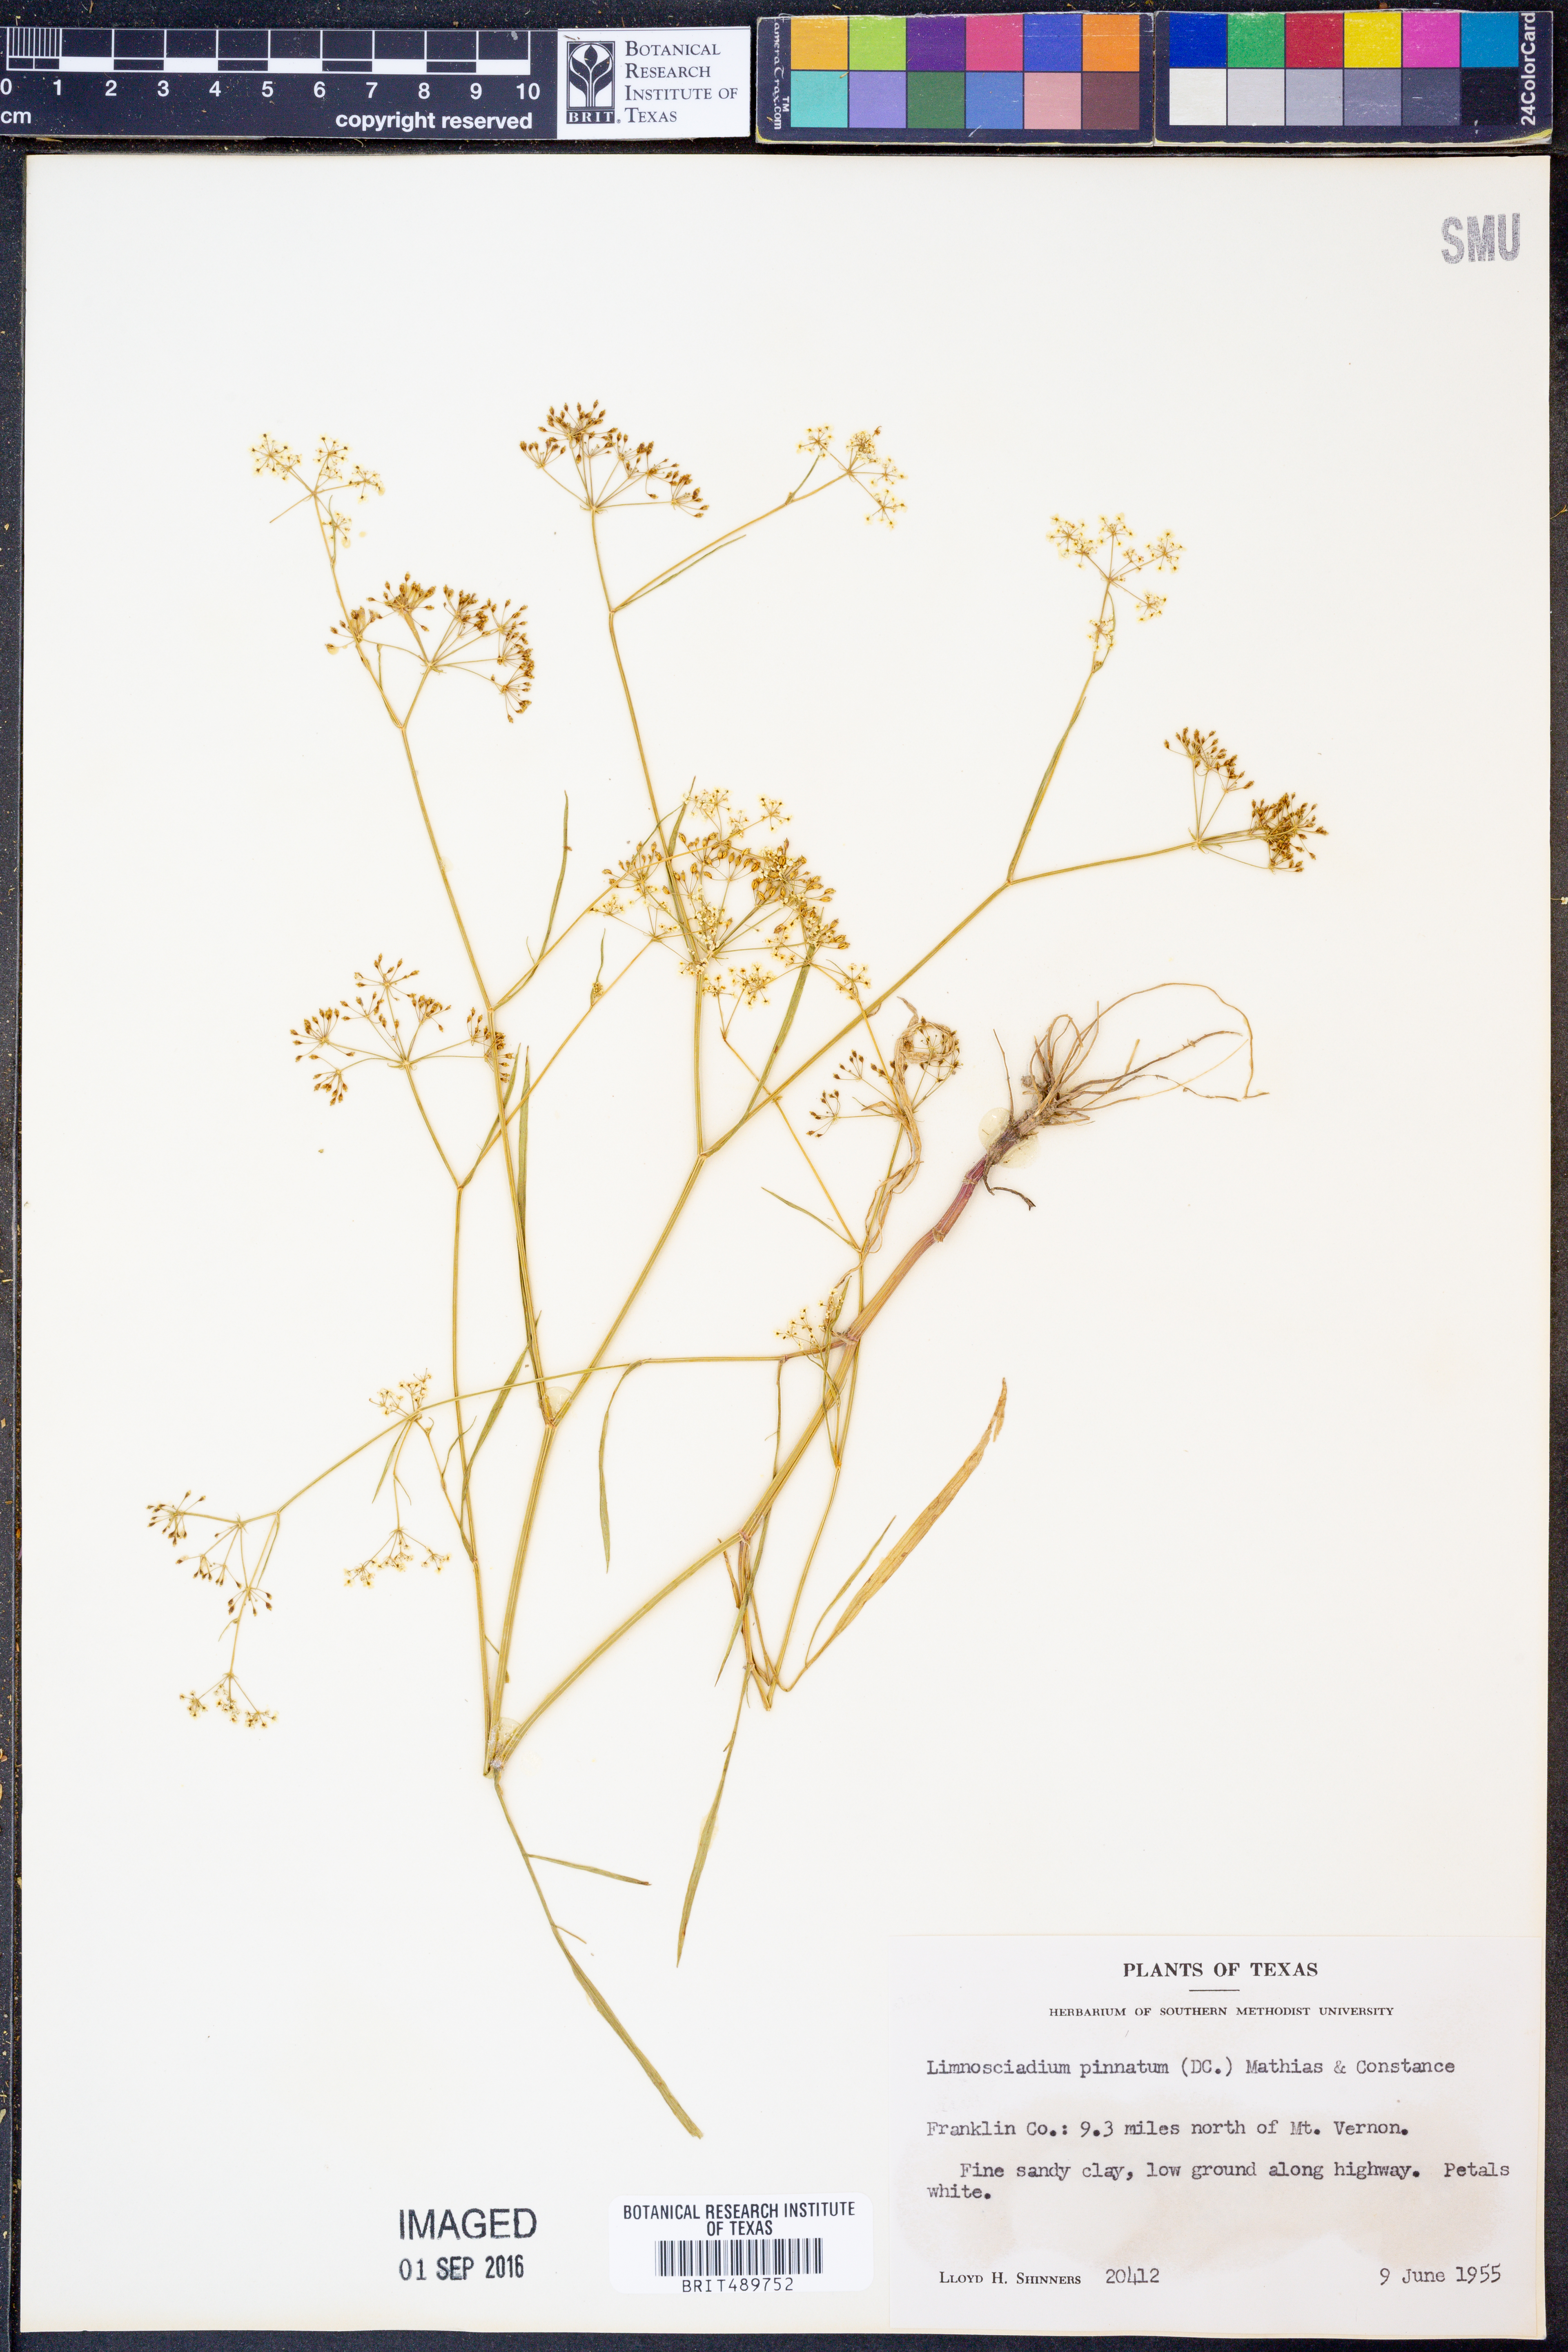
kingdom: Plantae
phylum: Tracheophyta
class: Magnoliopsida
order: Apiales
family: Apiaceae
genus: Limnosciadium
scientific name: Limnosciadium pinnatum
